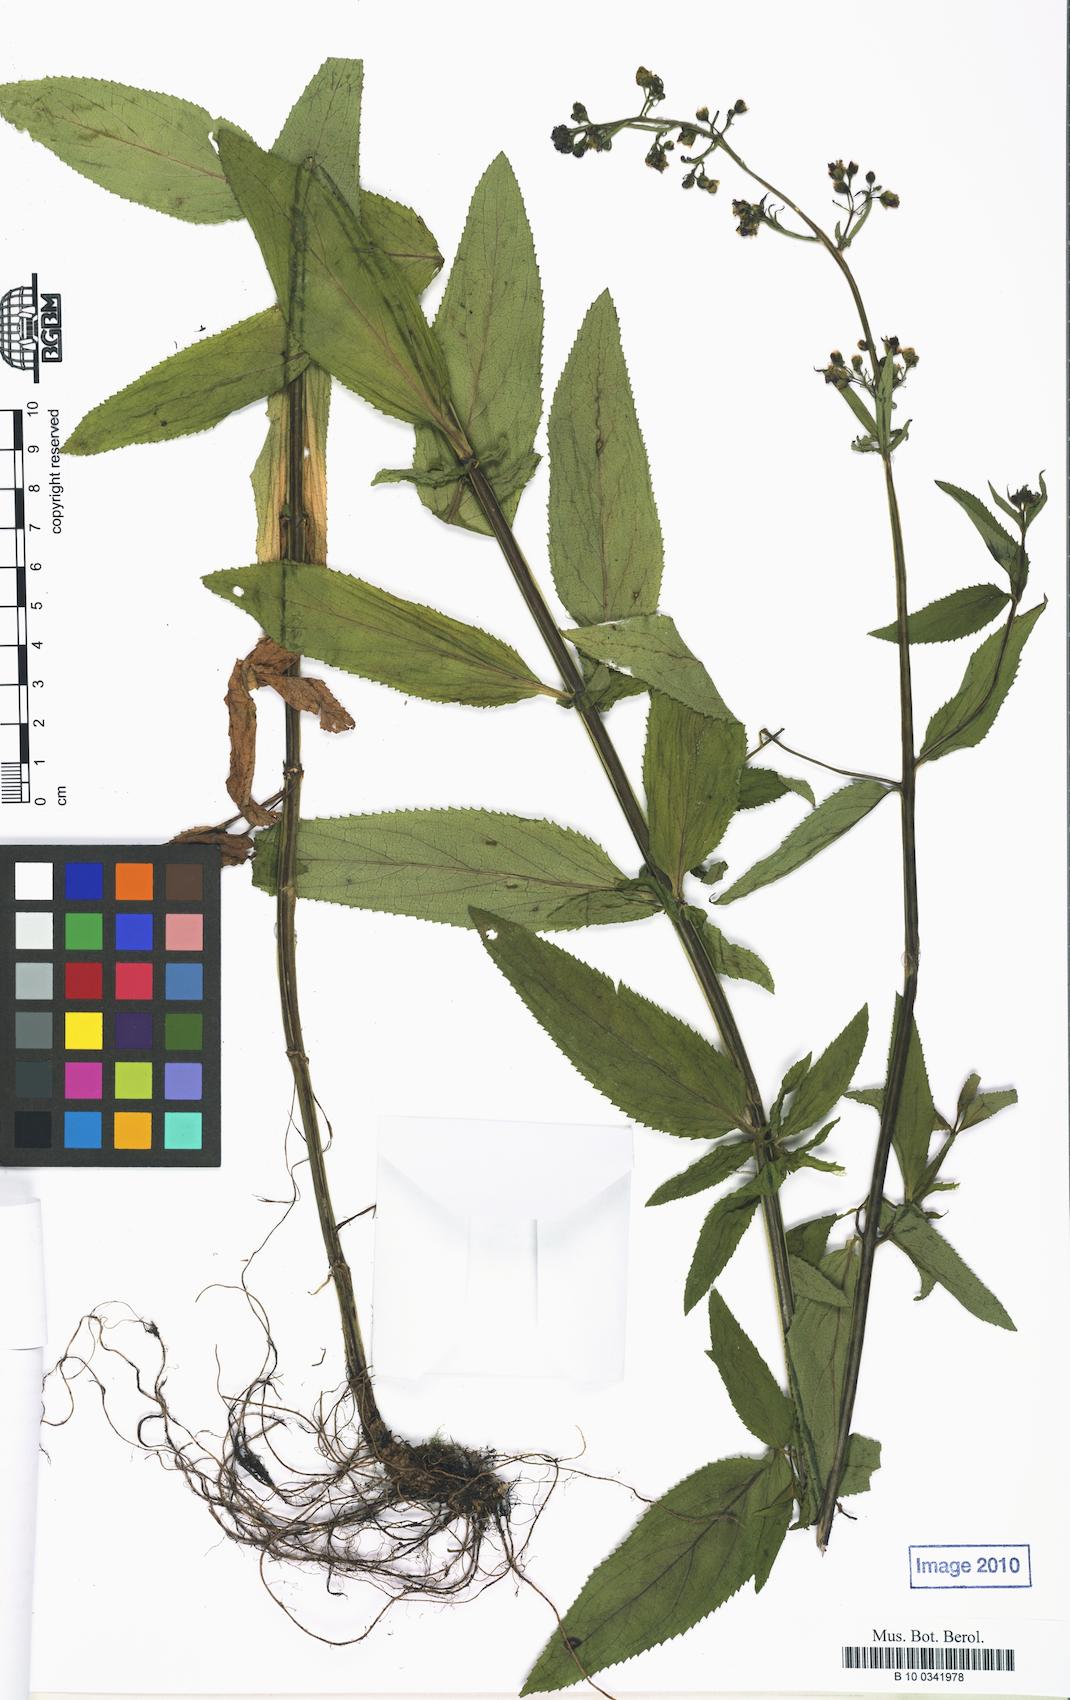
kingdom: Plantae
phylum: Tracheophyta
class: Magnoliopsida
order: Lamiales
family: Scrophulariaceae
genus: Scrophularia
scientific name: Scrophularia umbrosa
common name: Green figwort
